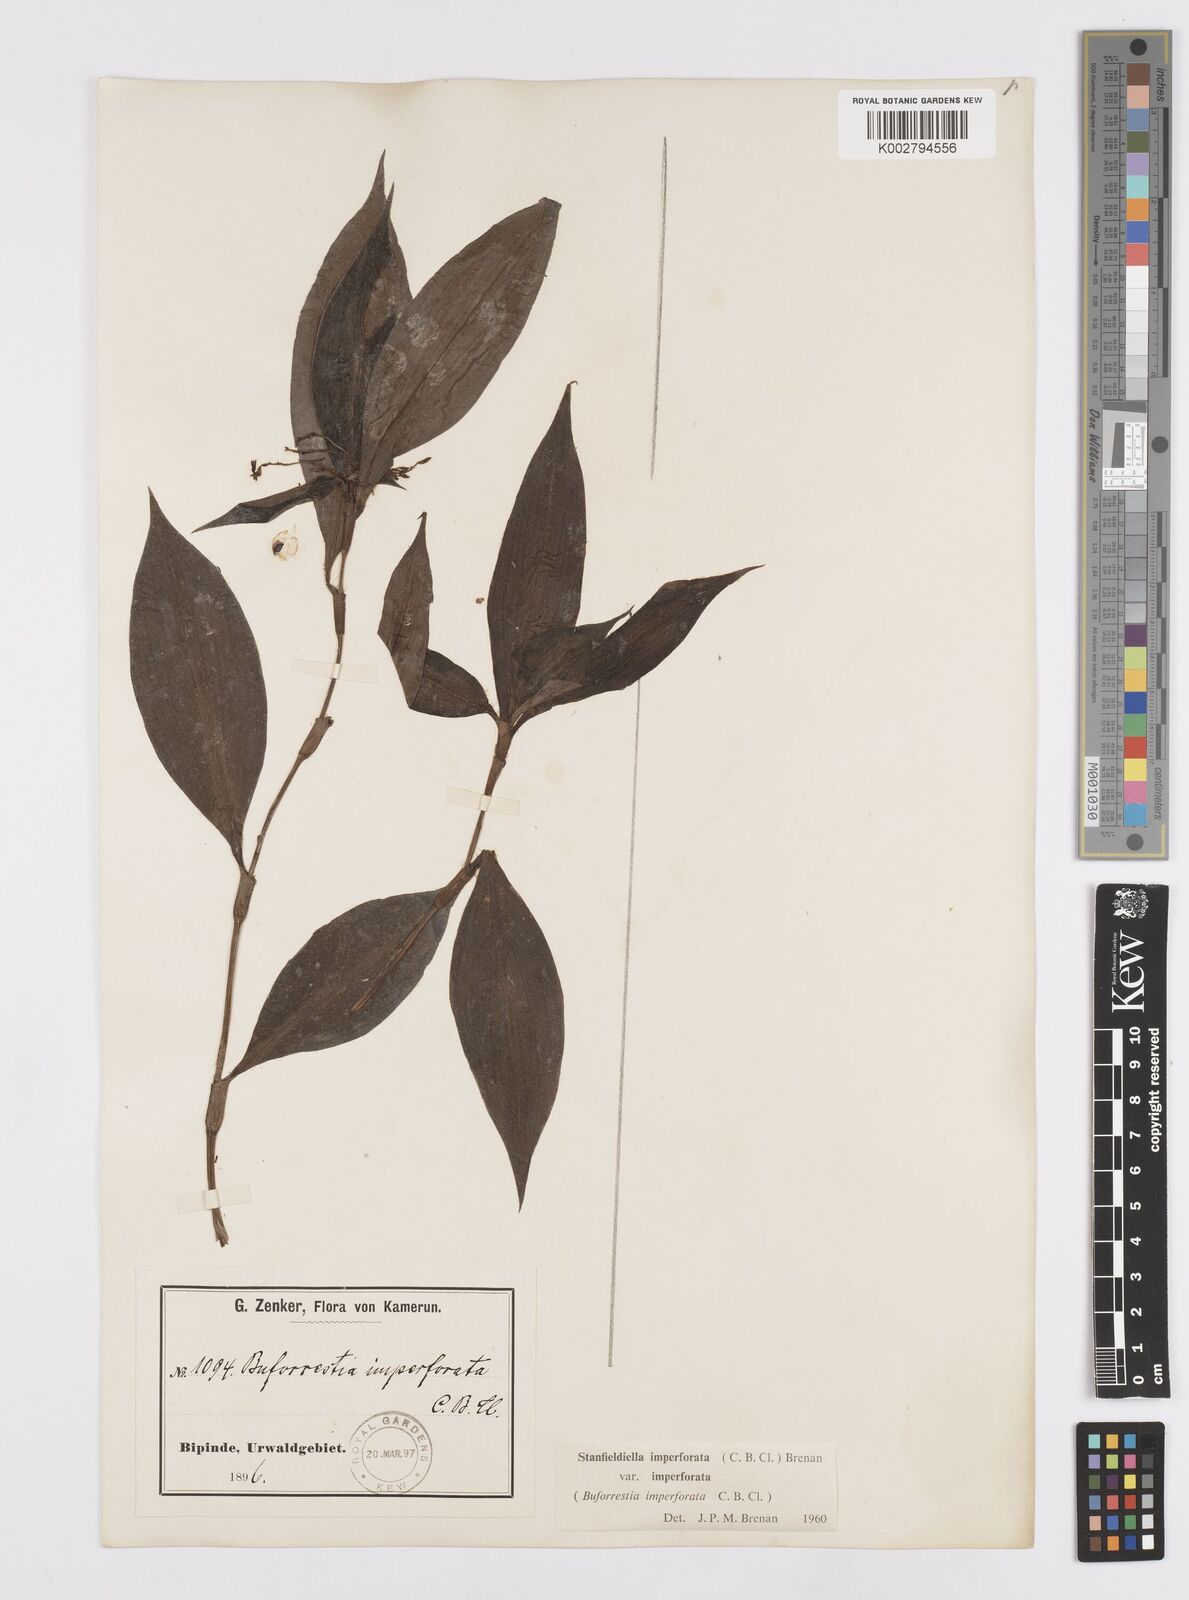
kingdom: Plantae
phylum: Tracheophyta
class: Liliopsida
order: Commelinales
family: Commelinaceae
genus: Stanfieldiella
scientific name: Stanfieldiella imperforata
